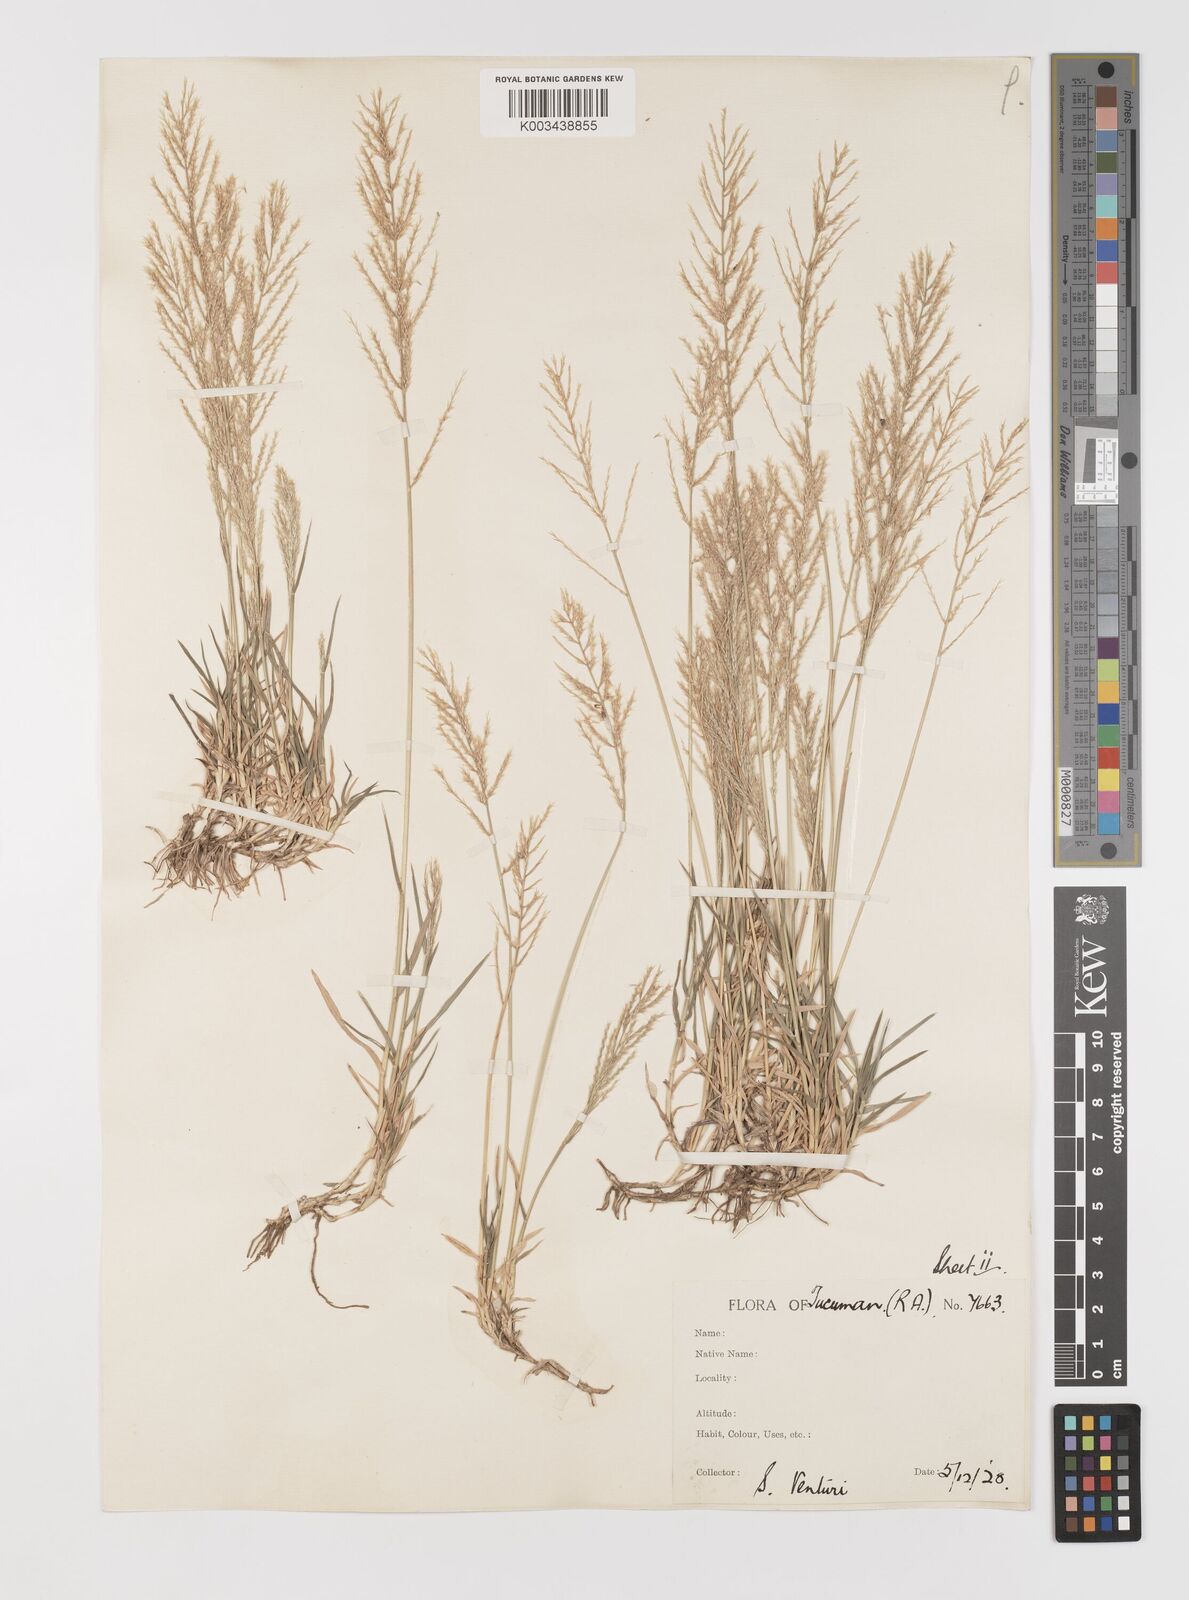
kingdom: Plantae
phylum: Tracheophyta
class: Liliopsida
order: Poales
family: Poaceae
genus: Neobouteloua
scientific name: Neobouteloua lophostachya
